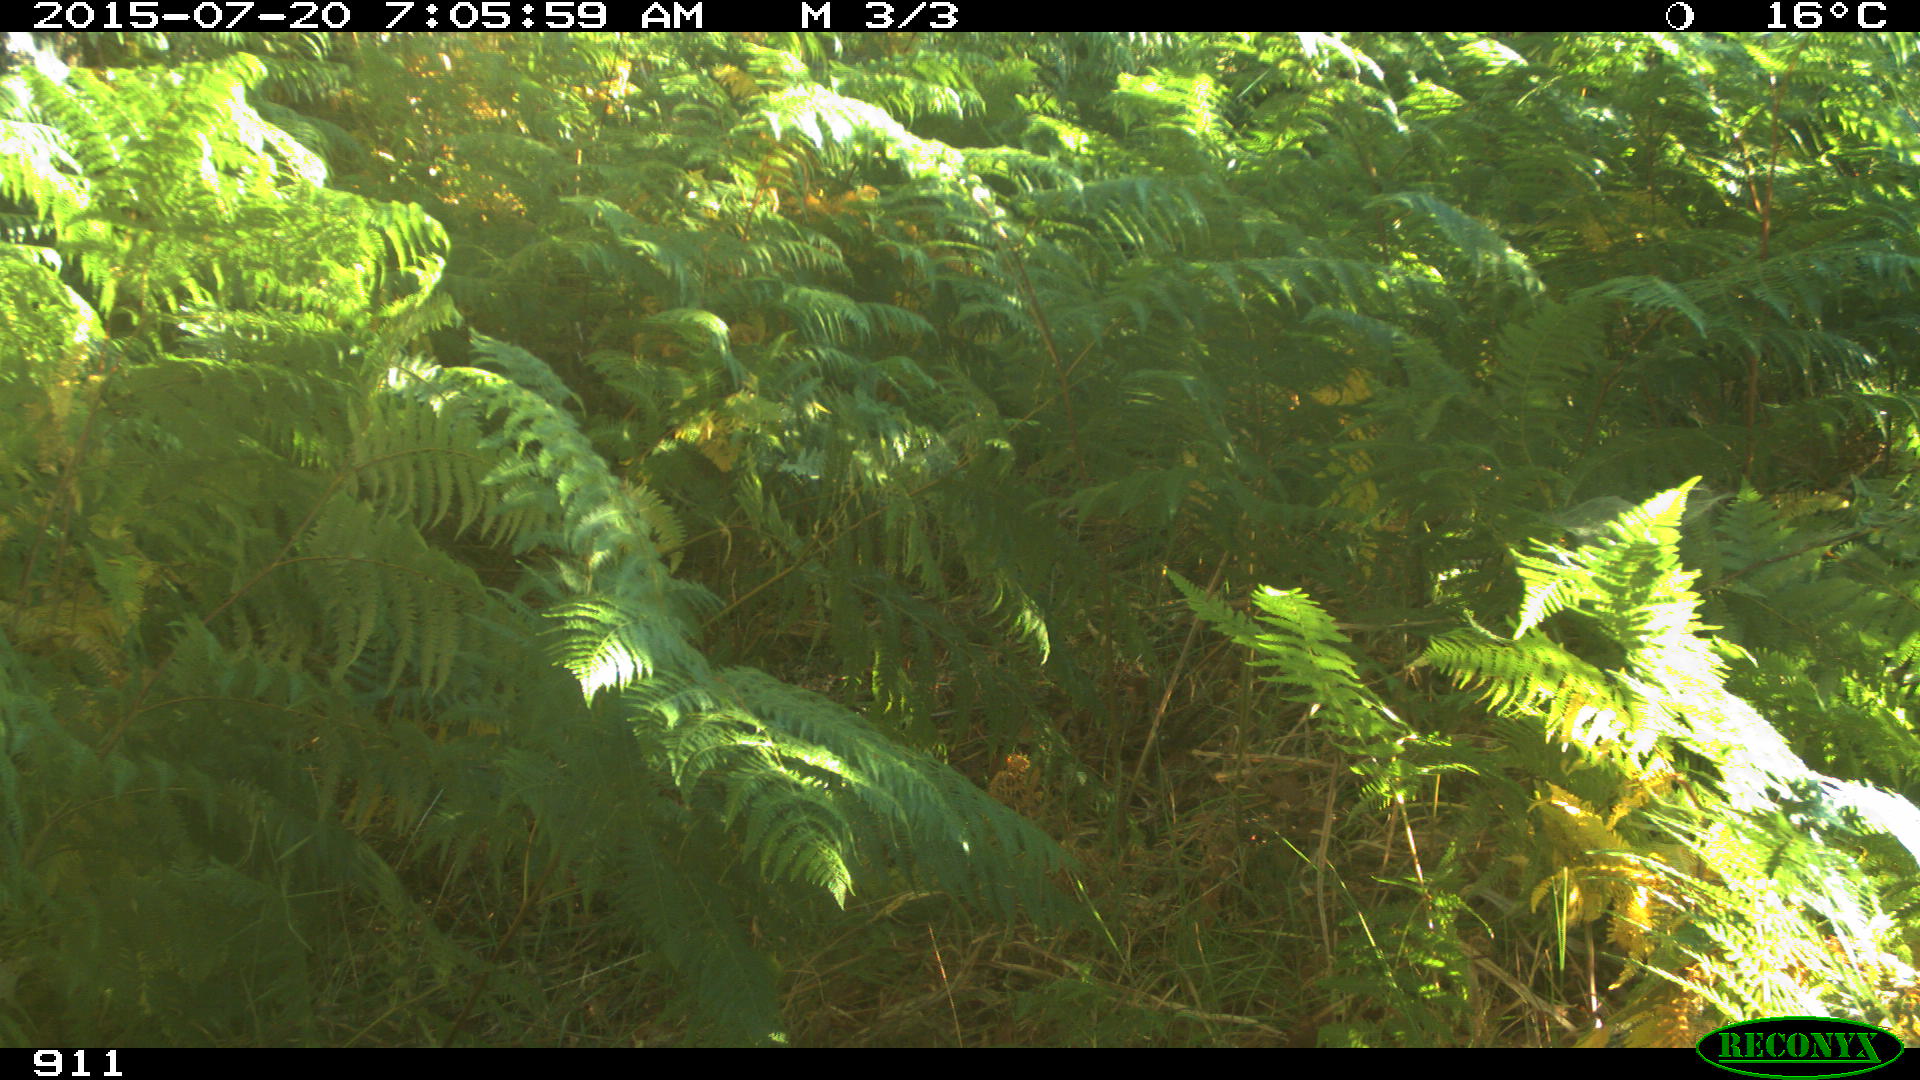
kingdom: Animalia
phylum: Chordata
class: Mammalia
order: Artiodactyla
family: Bovidae
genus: Bos
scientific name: Bos taurus
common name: Domesticated cattle
